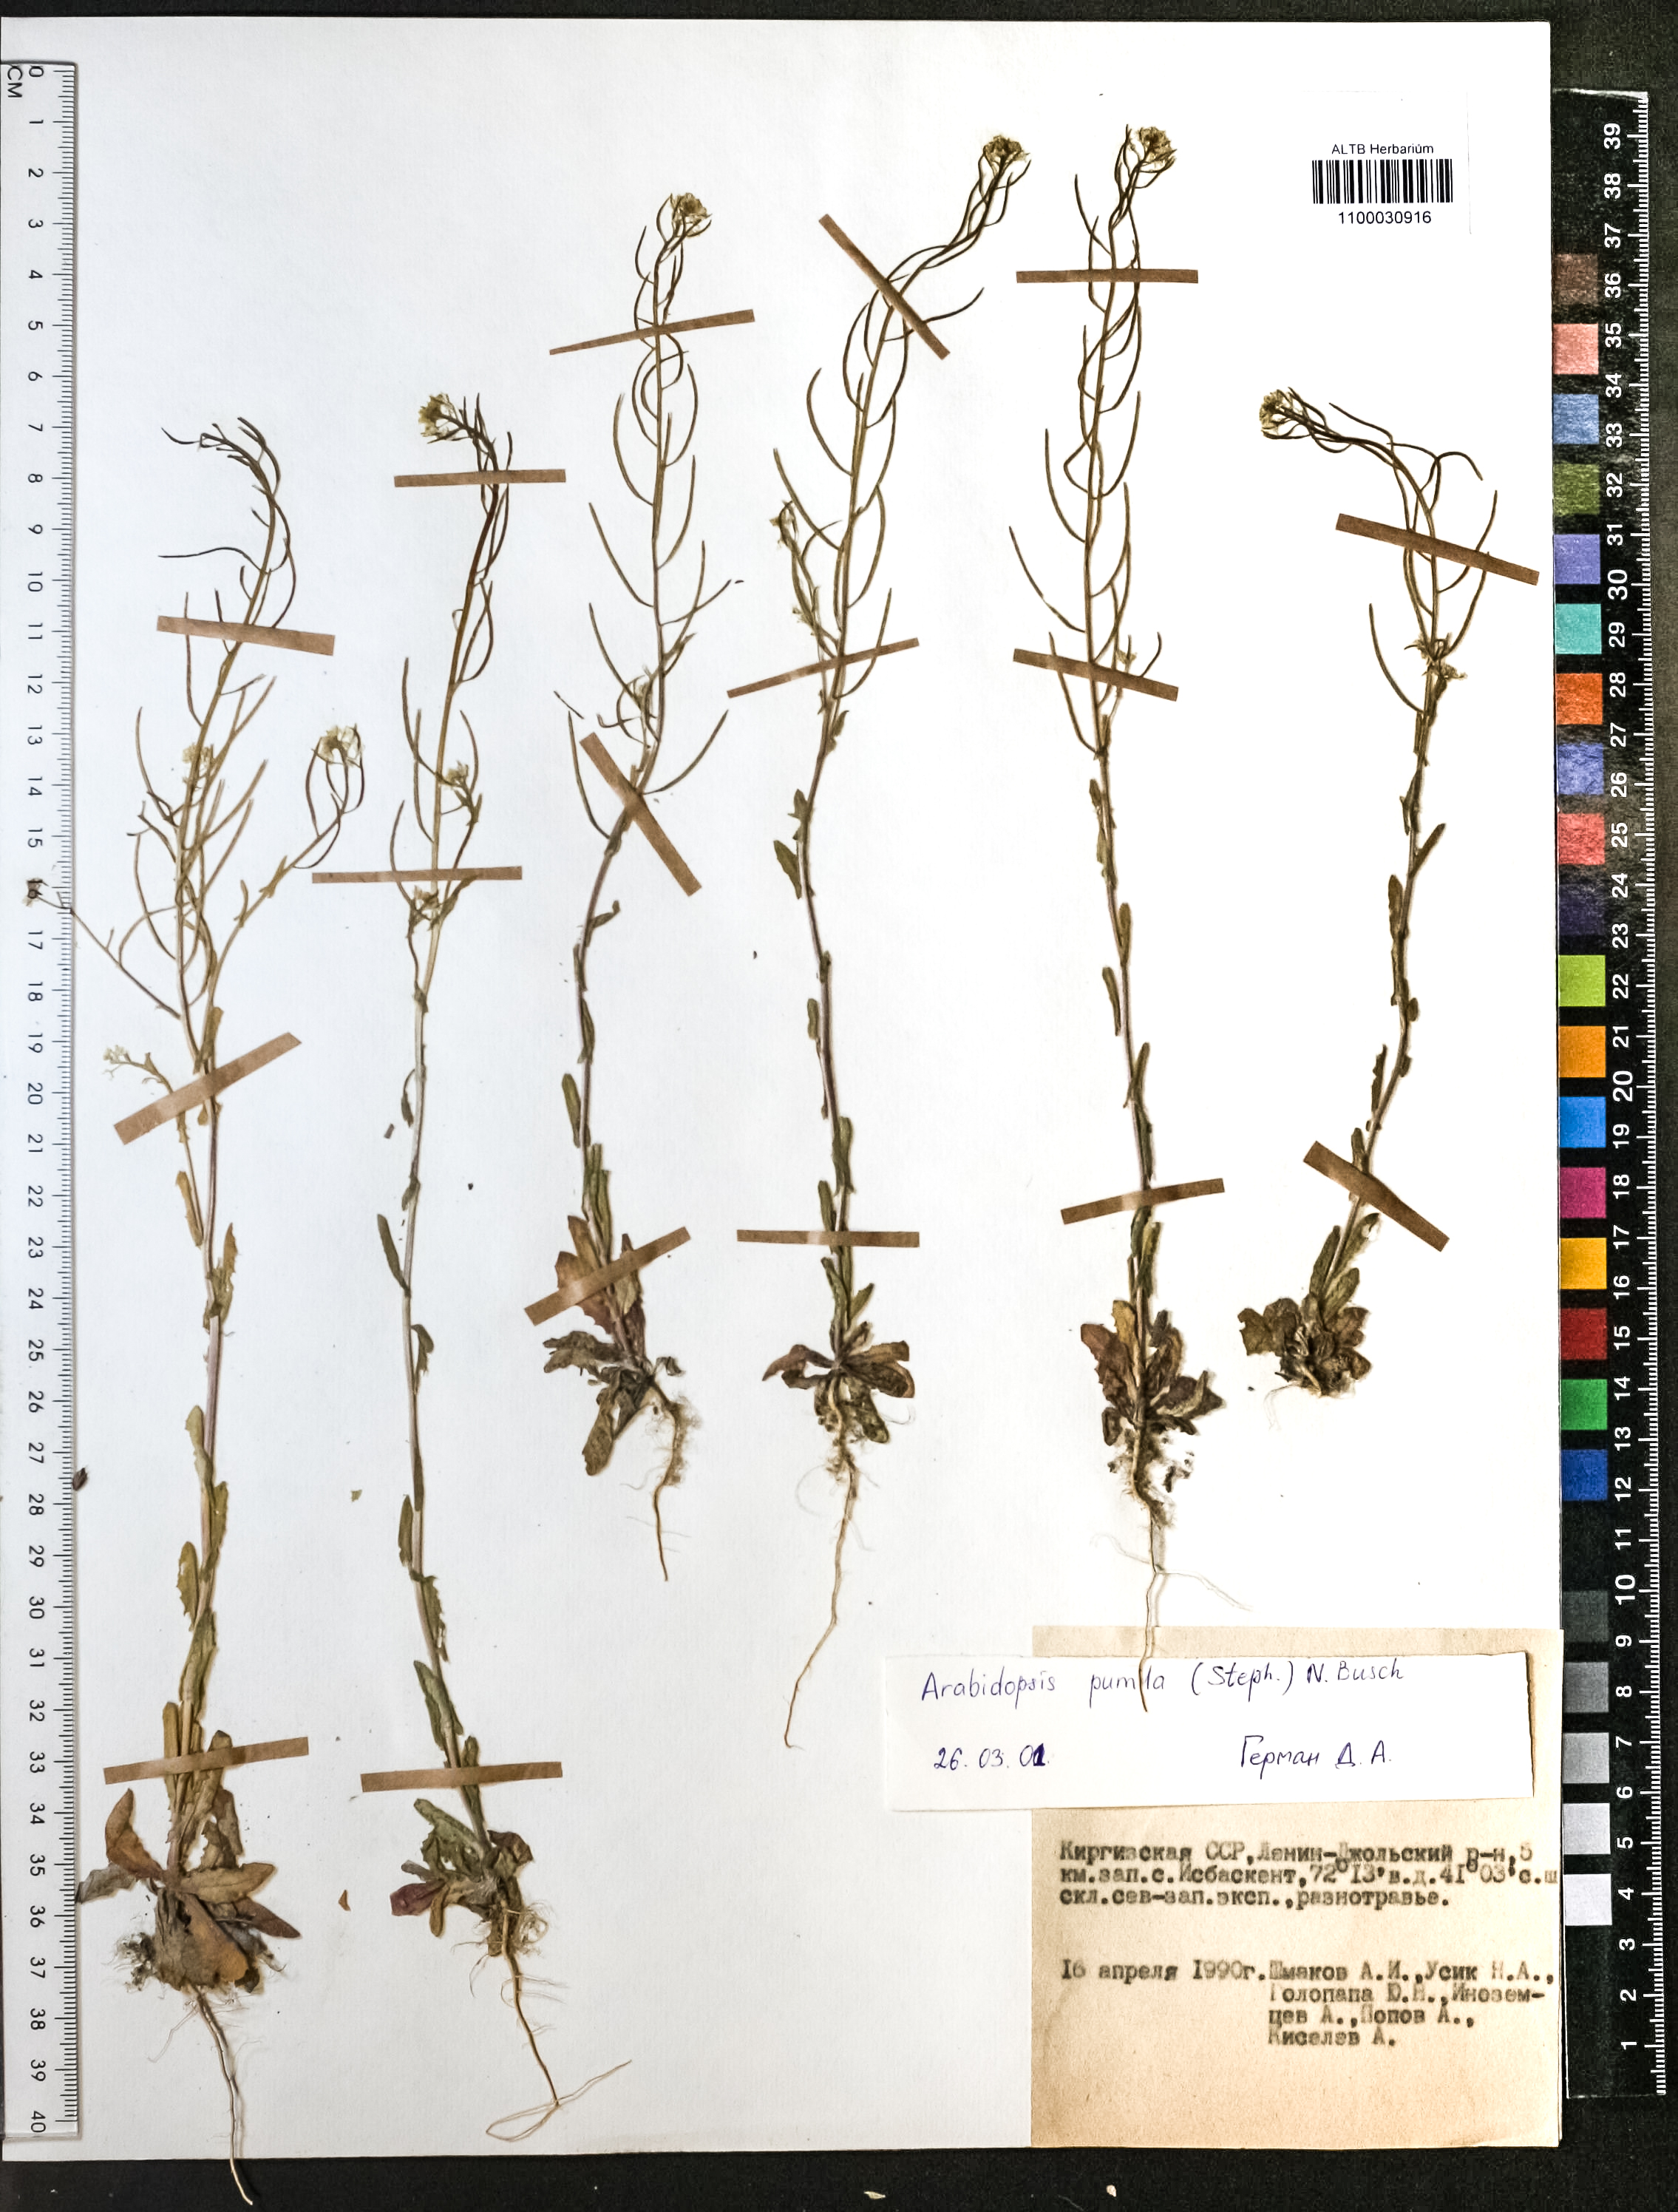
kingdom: Plantae
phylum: Tracheophyta
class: Magnoliopsida
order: Brassicales
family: Brassicaceae
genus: Sisymbrium
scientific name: Sisymbrium pumilum
